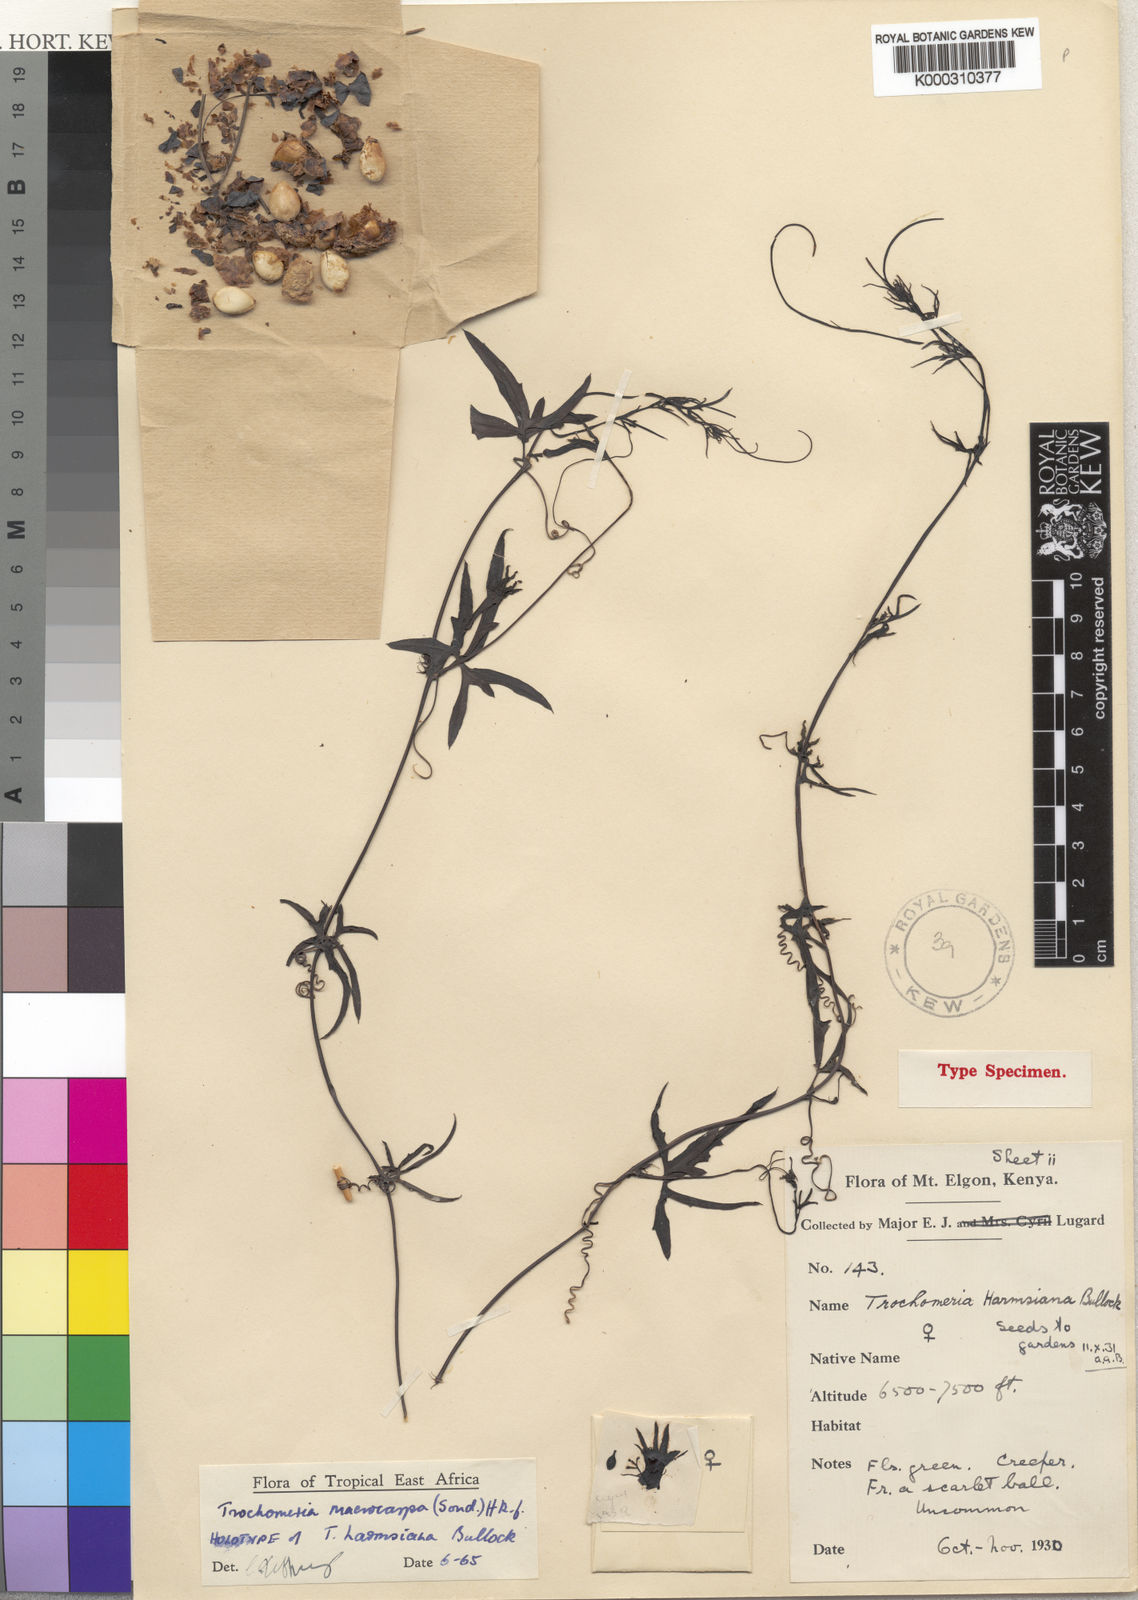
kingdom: Plantae
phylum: Tracheophyta
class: Magnoliopsida
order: Cucurbitales
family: Cucurbitaceae
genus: Trochomeria
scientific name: Trochomeria
